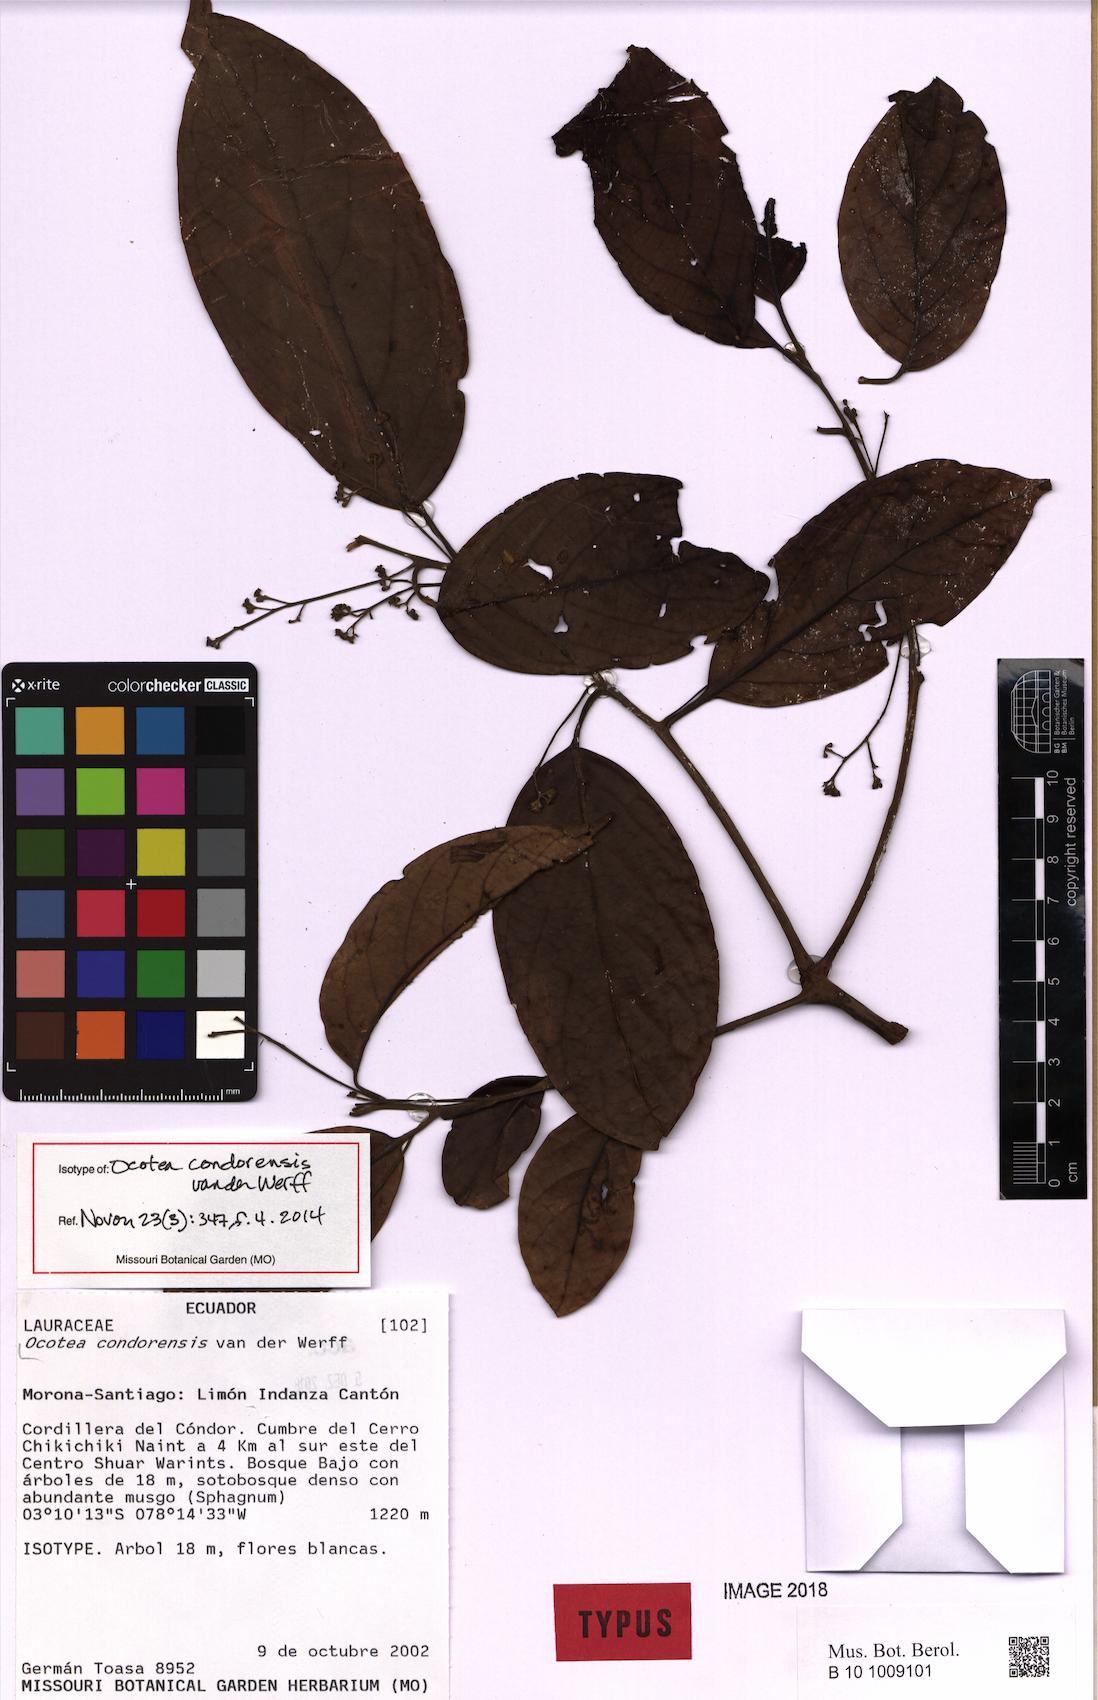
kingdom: Plantae
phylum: Tracheophyta
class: Magnoliopsida
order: Laurales
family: Lauraceae
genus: Ocotea
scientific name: Ocotea condorensis
